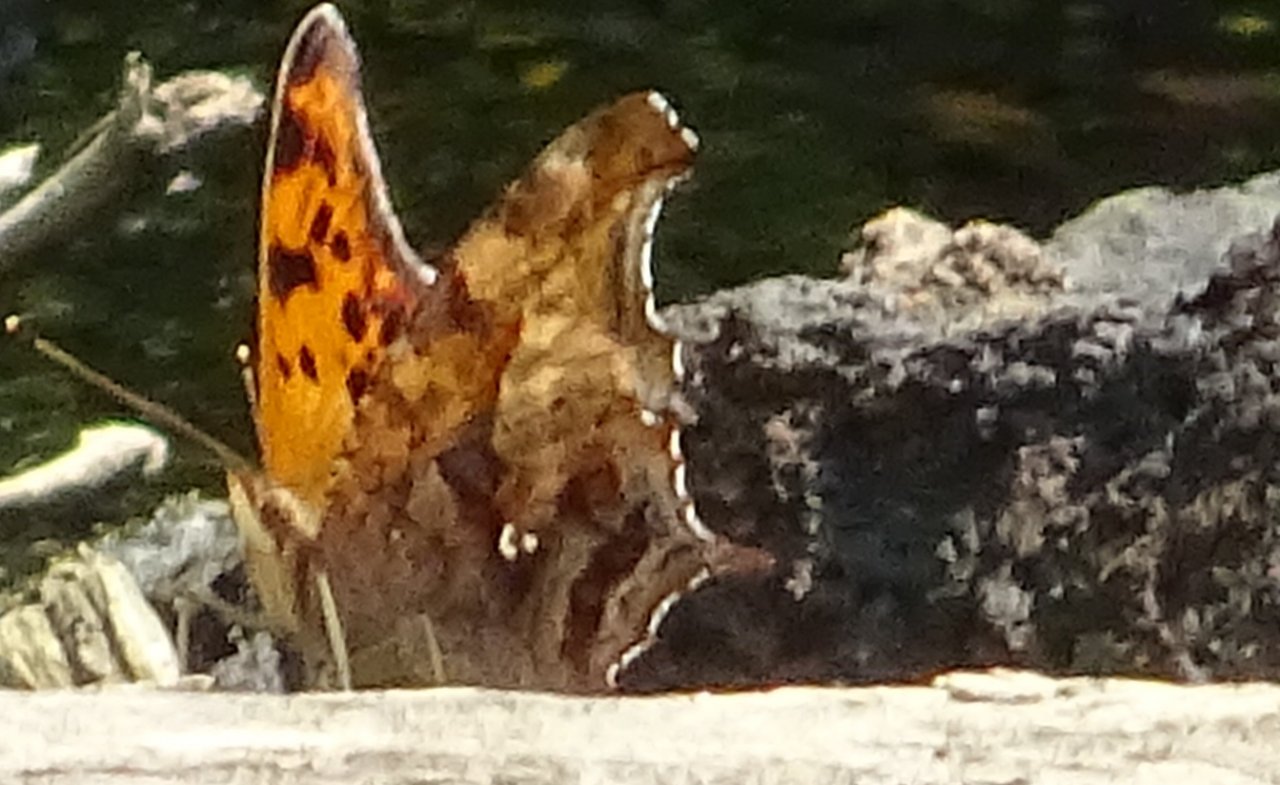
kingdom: Animalia
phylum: Arthropoda
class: Insecta
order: Lepidoptera
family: Nymphalidae
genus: Polygonia
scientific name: Polygonia interrogationis
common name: Question Mark
